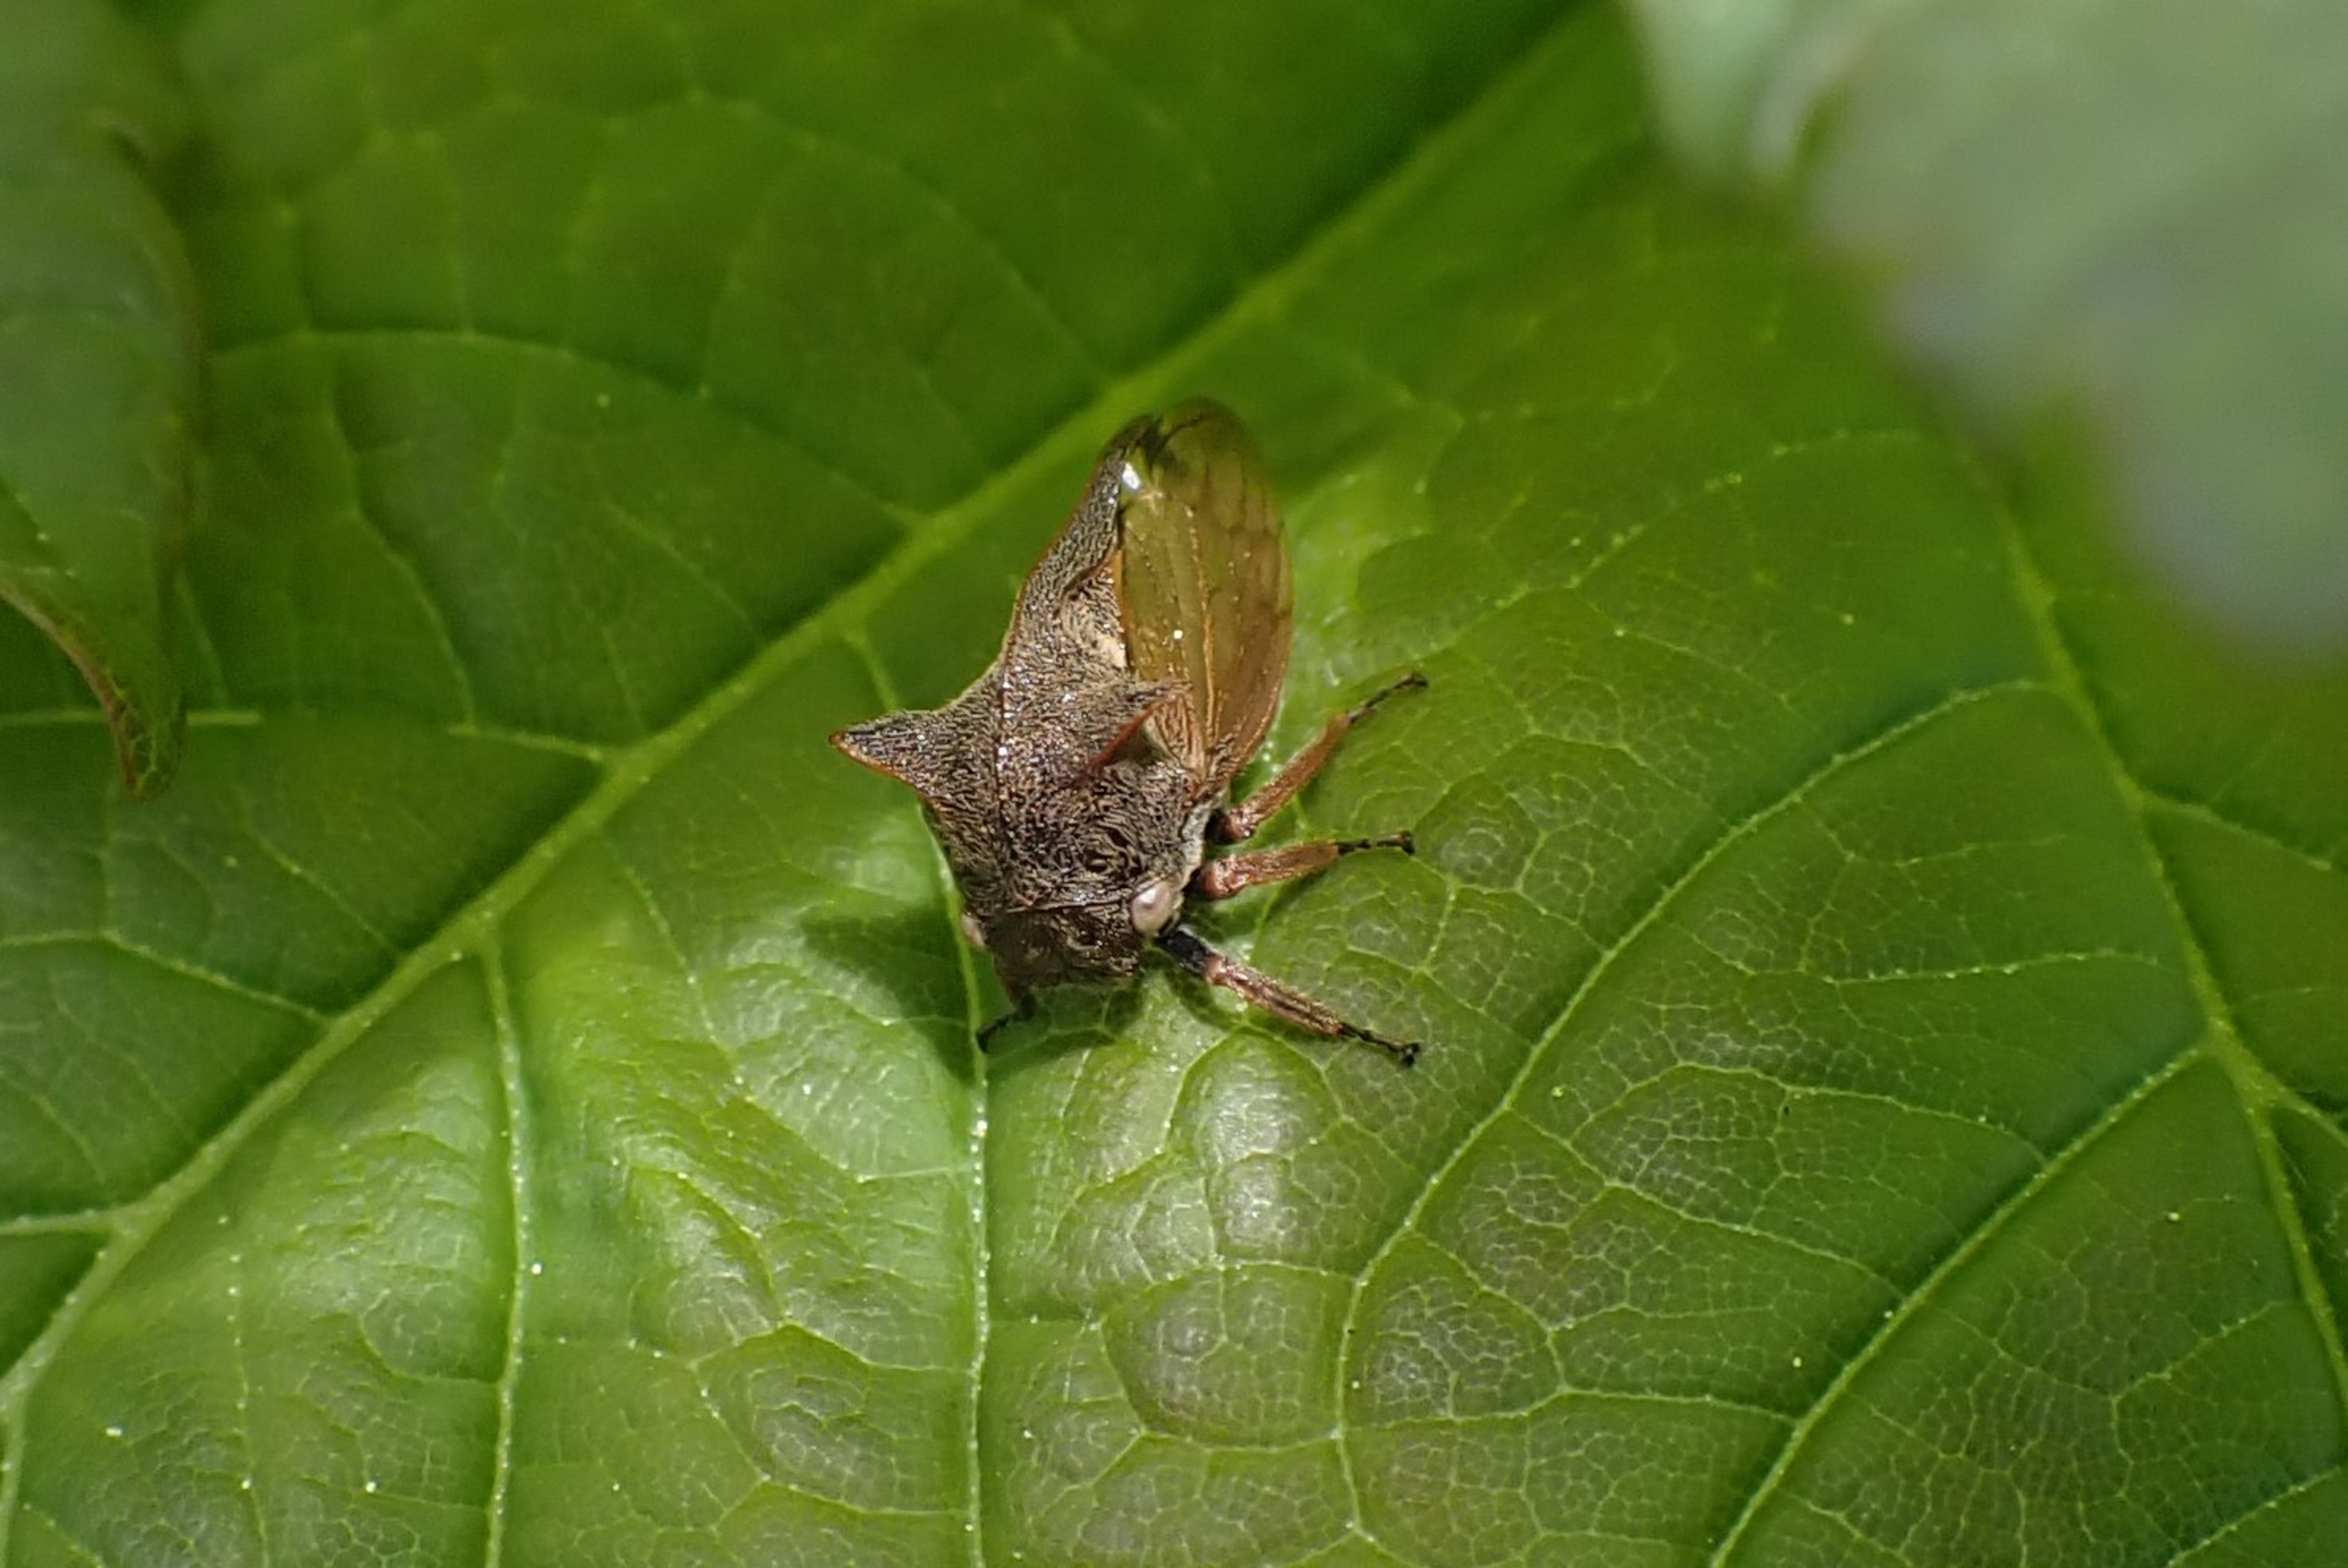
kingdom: Animalia
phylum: Arthropoda
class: Insecta
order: Hemiptera
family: Membracidae
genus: Centrotus
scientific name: Centrotus cornuta
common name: Horncikade
